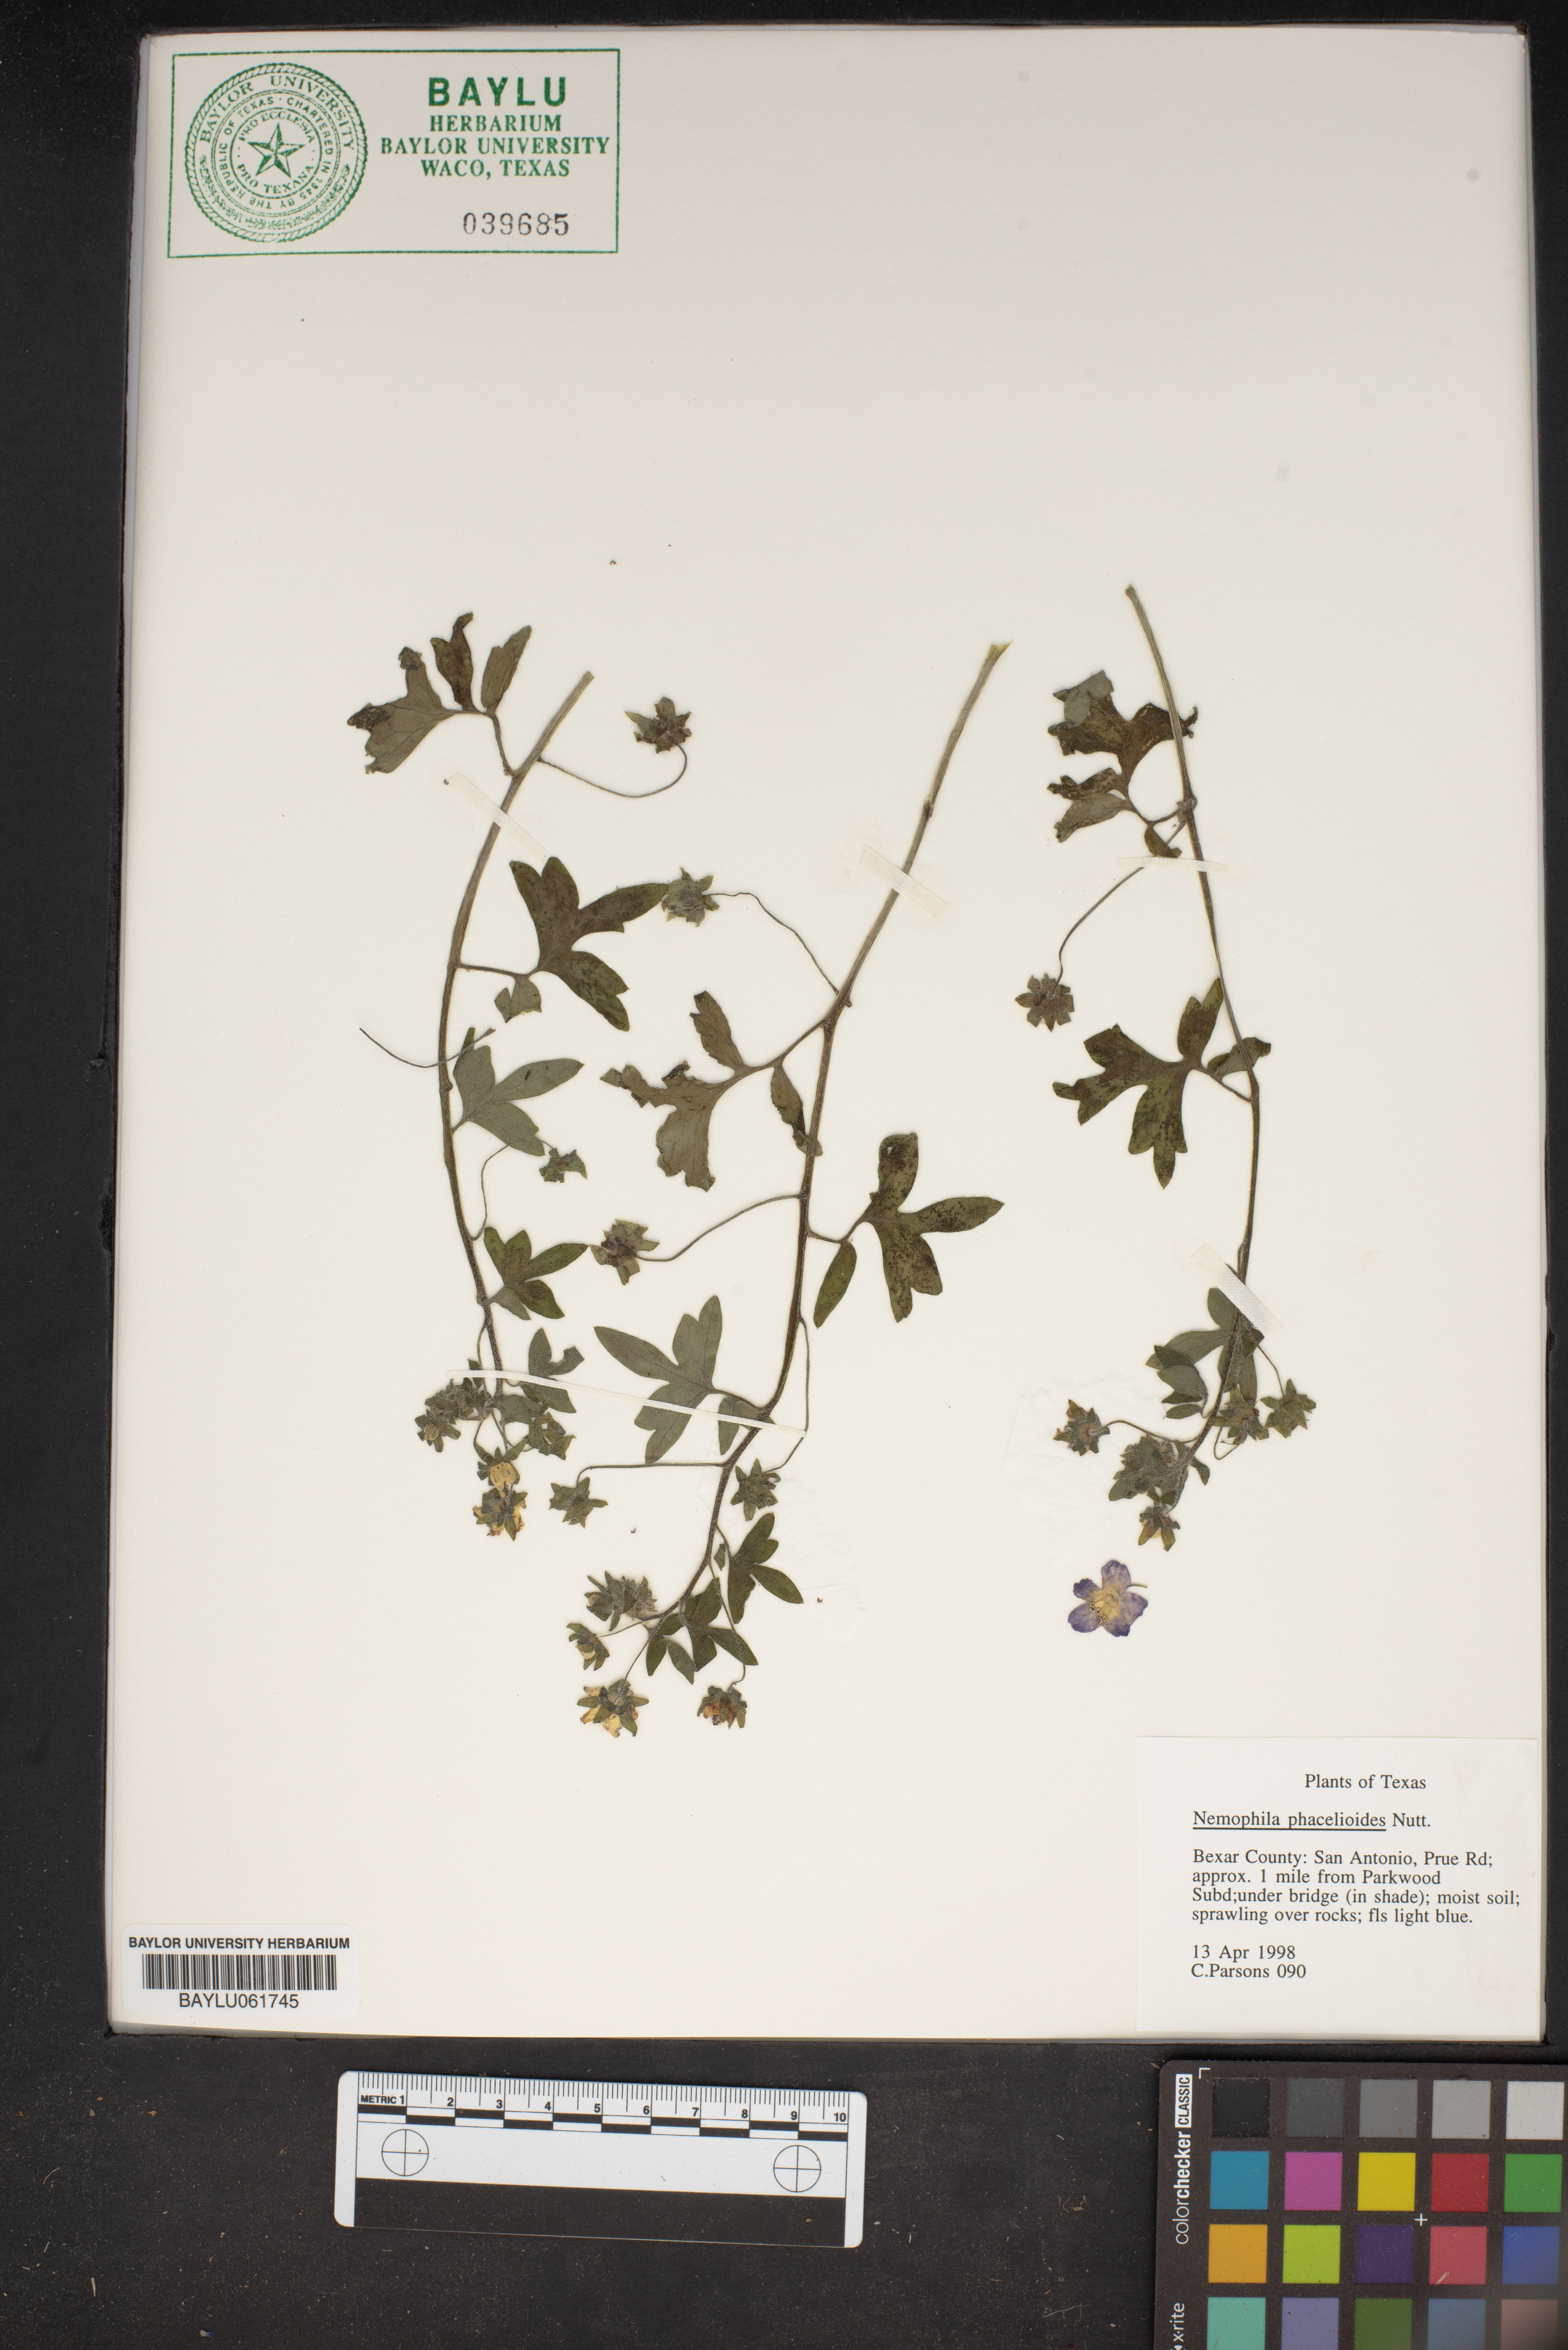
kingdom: Plantae
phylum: Tracheophyta
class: Magnoliopsida
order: Boraginales
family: Hydrophyllaceae
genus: Nemophila
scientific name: Nemophila phacelioides
